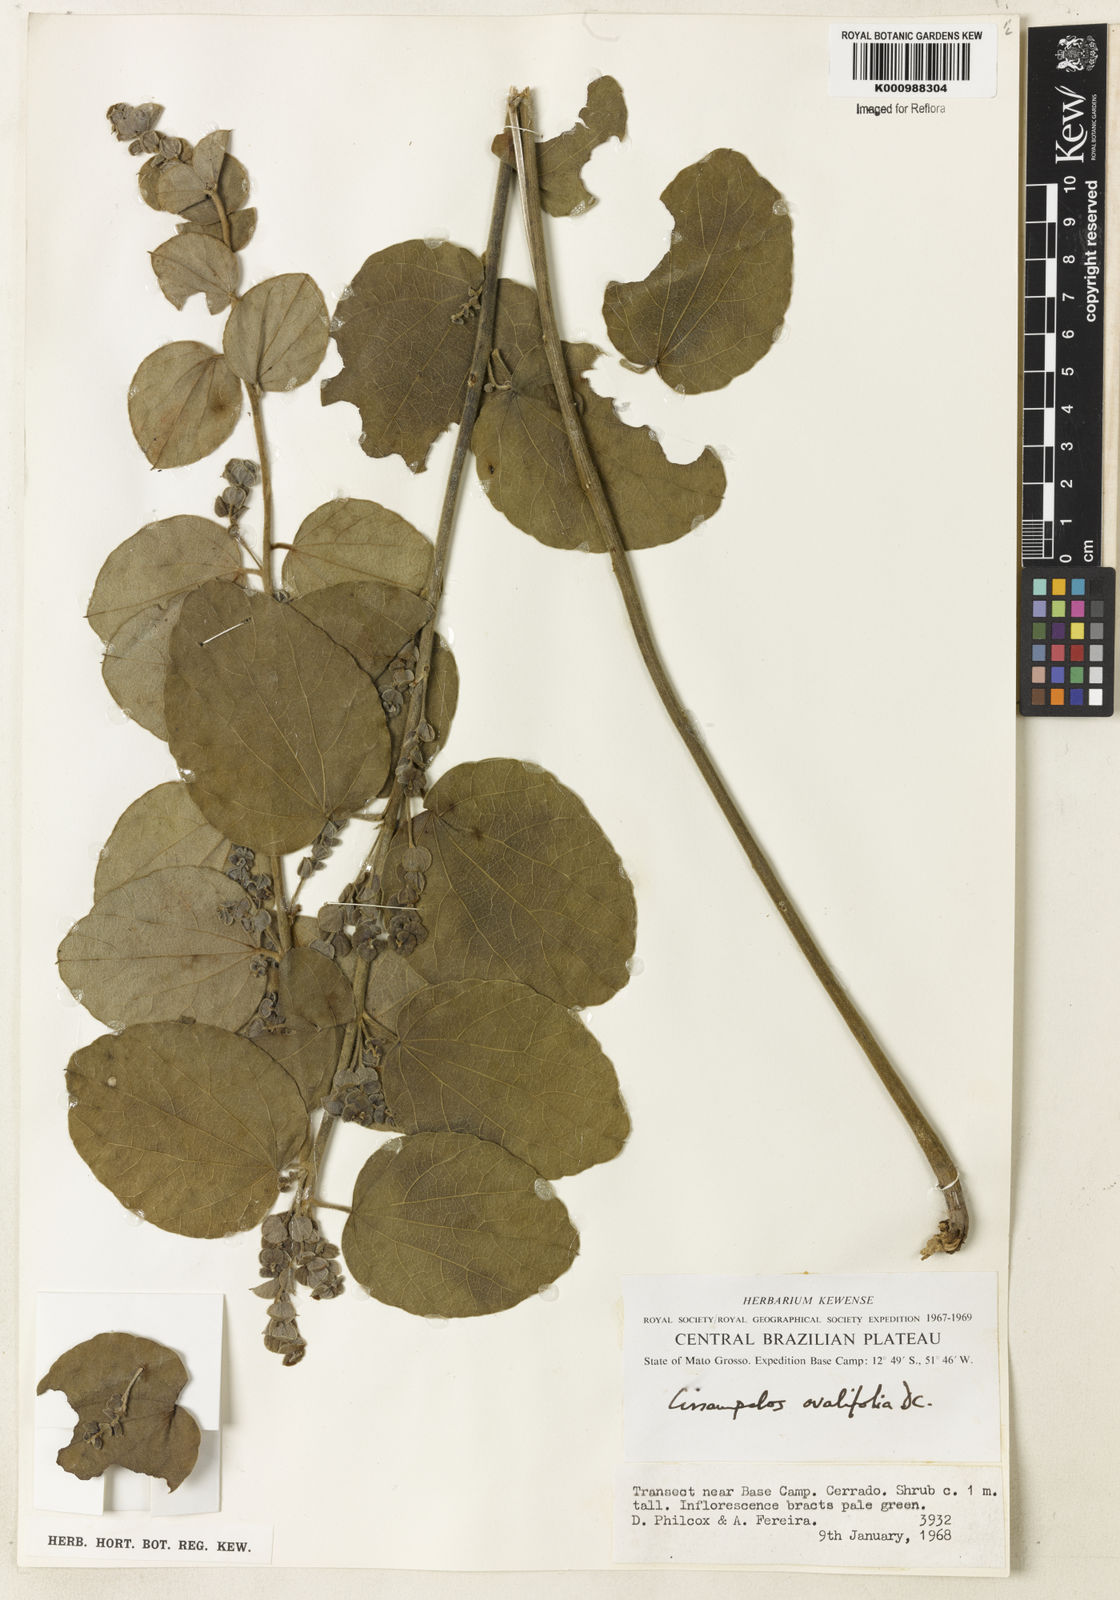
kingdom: Plantae
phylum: Tracheophyta
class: Magnoliopsida
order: Ranunculales
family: Menispermaceae
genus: Cissampelos
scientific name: Cissampelos ovalifolia
